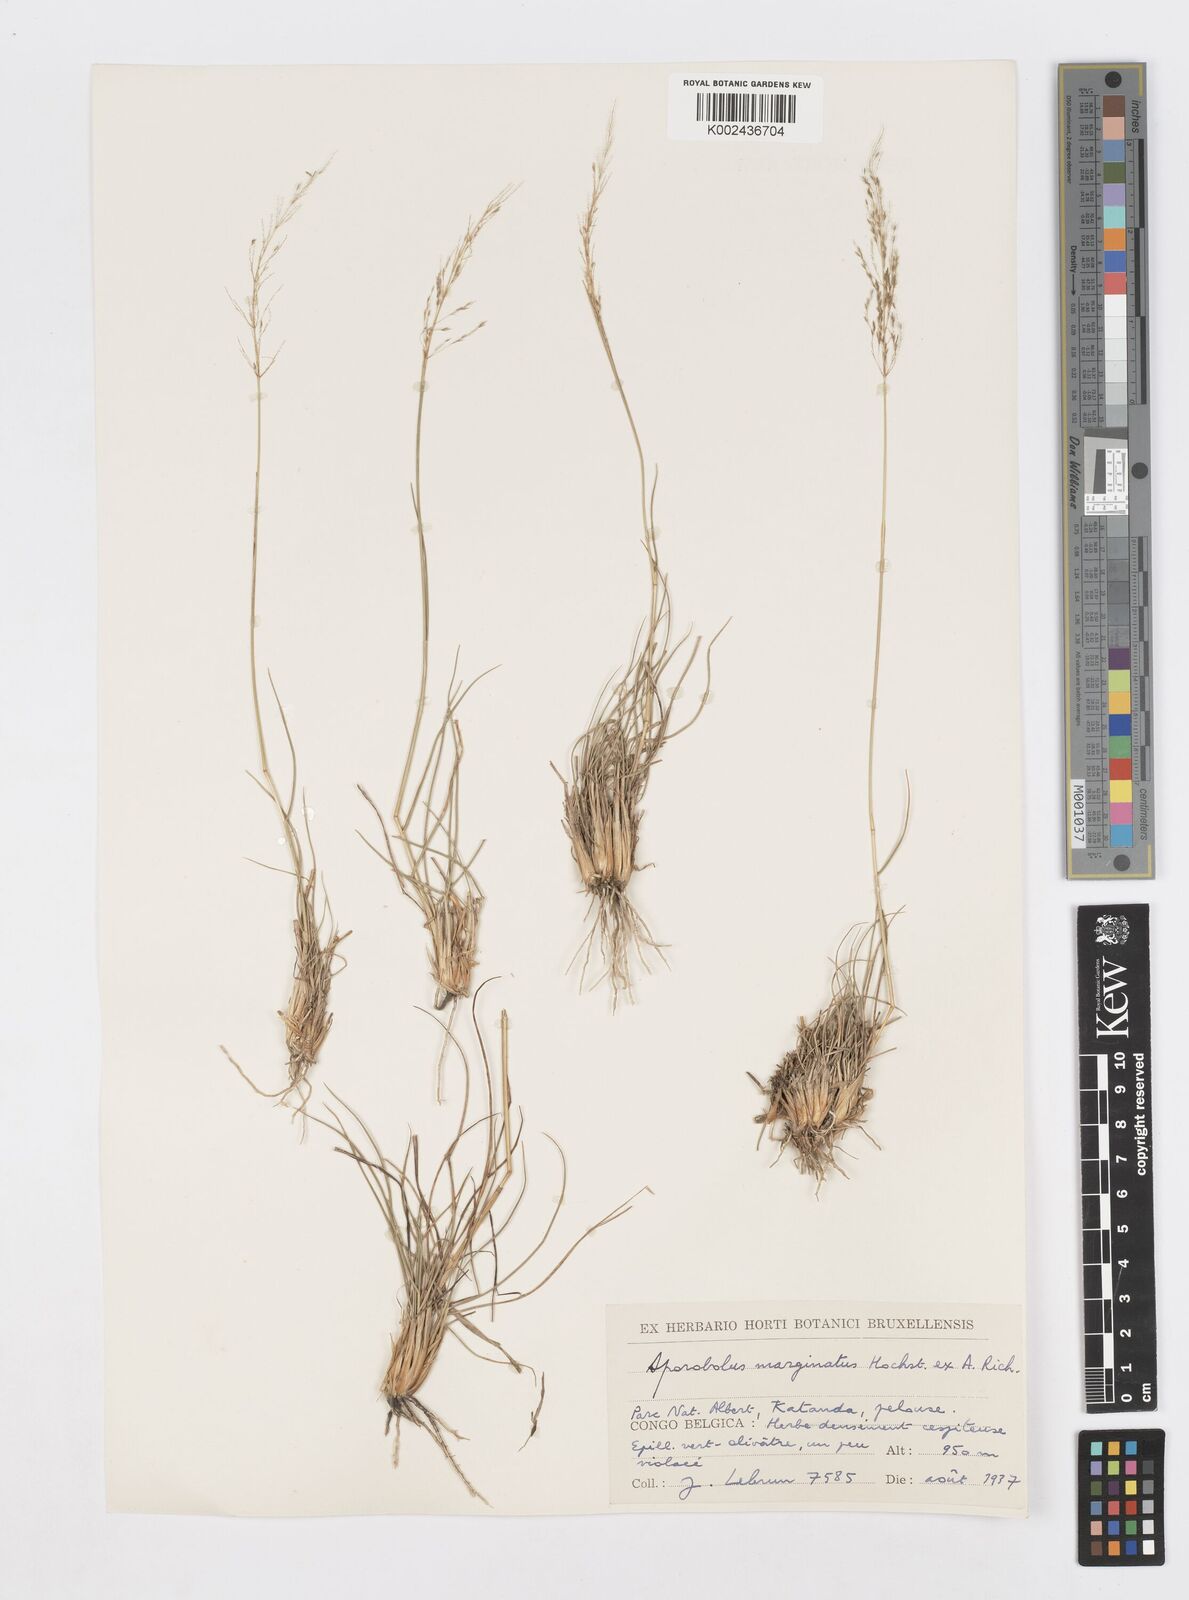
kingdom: Plantae
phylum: Tracheophyta
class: Liliopsida
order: Poales
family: Poaceae
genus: Sporobolus
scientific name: Sporobolus ioclados
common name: Pan dropseed
